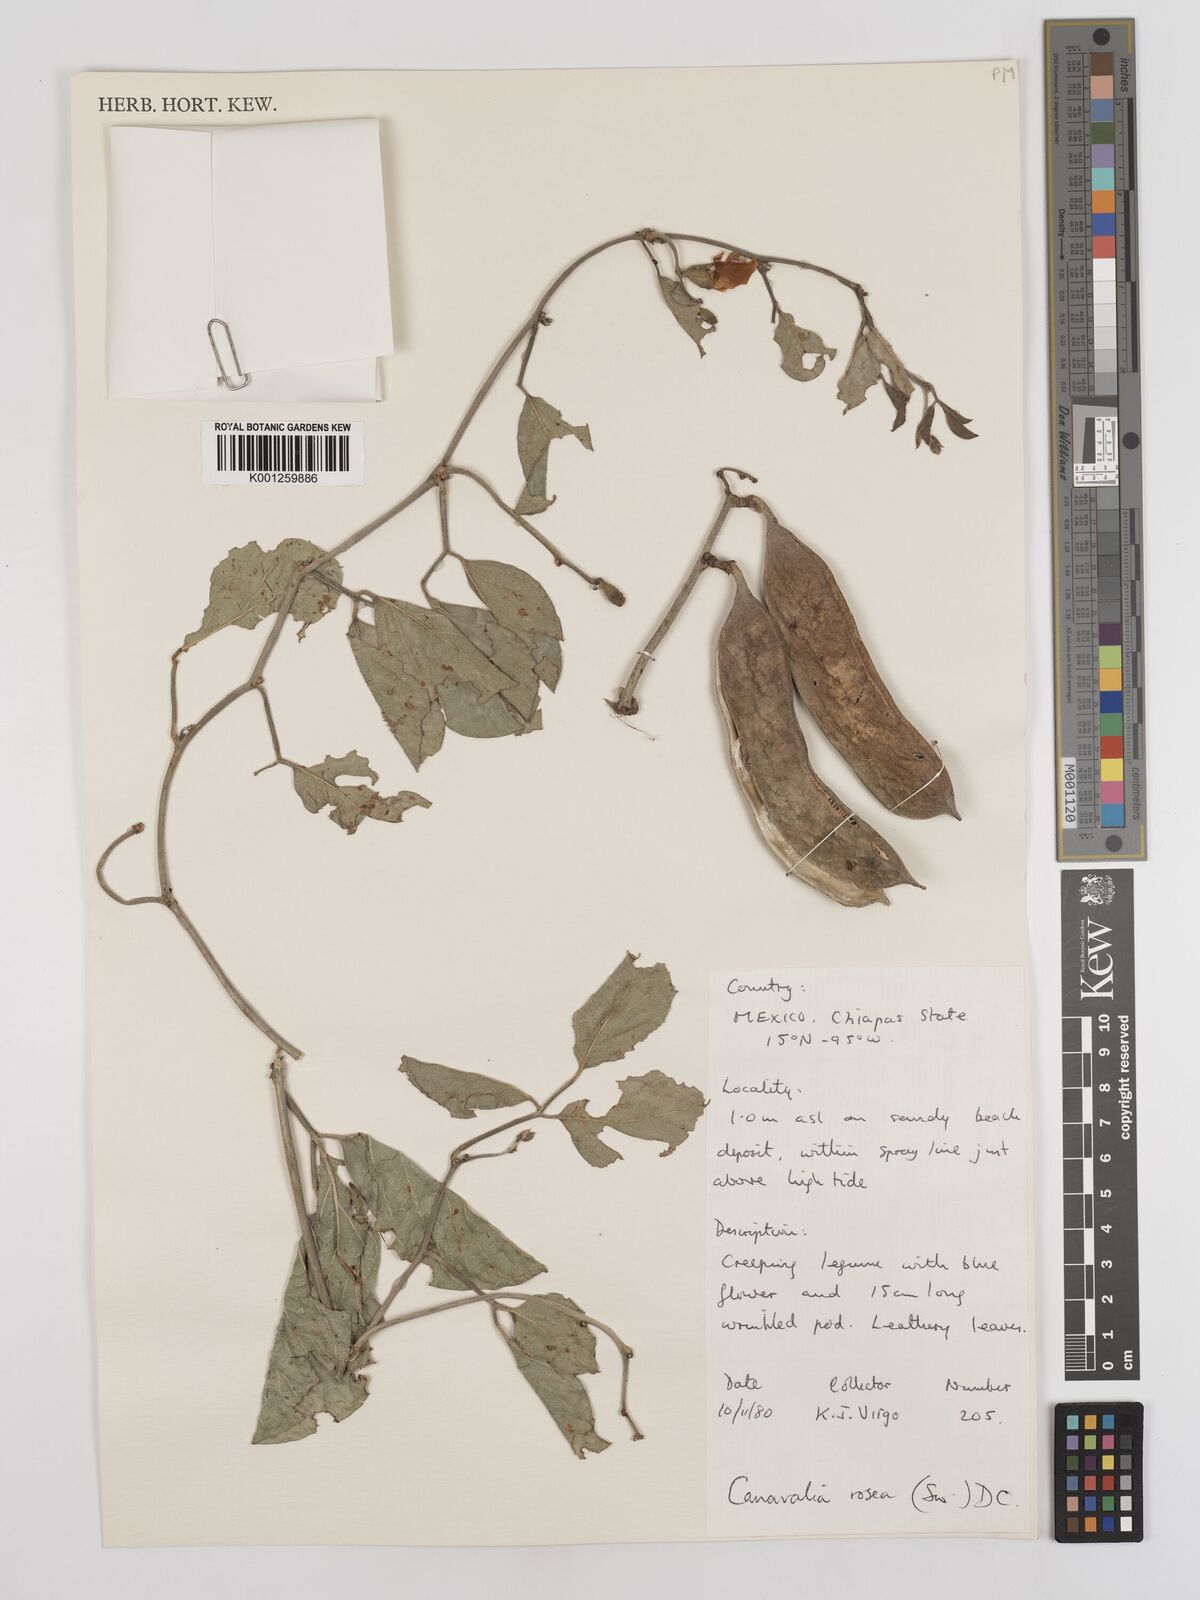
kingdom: Plantae
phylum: Tracheophyta
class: Magnoliopsida
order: Fabales
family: Fabaceae
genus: Canavalia
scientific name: Canavalia rosea
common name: Beach-bean
